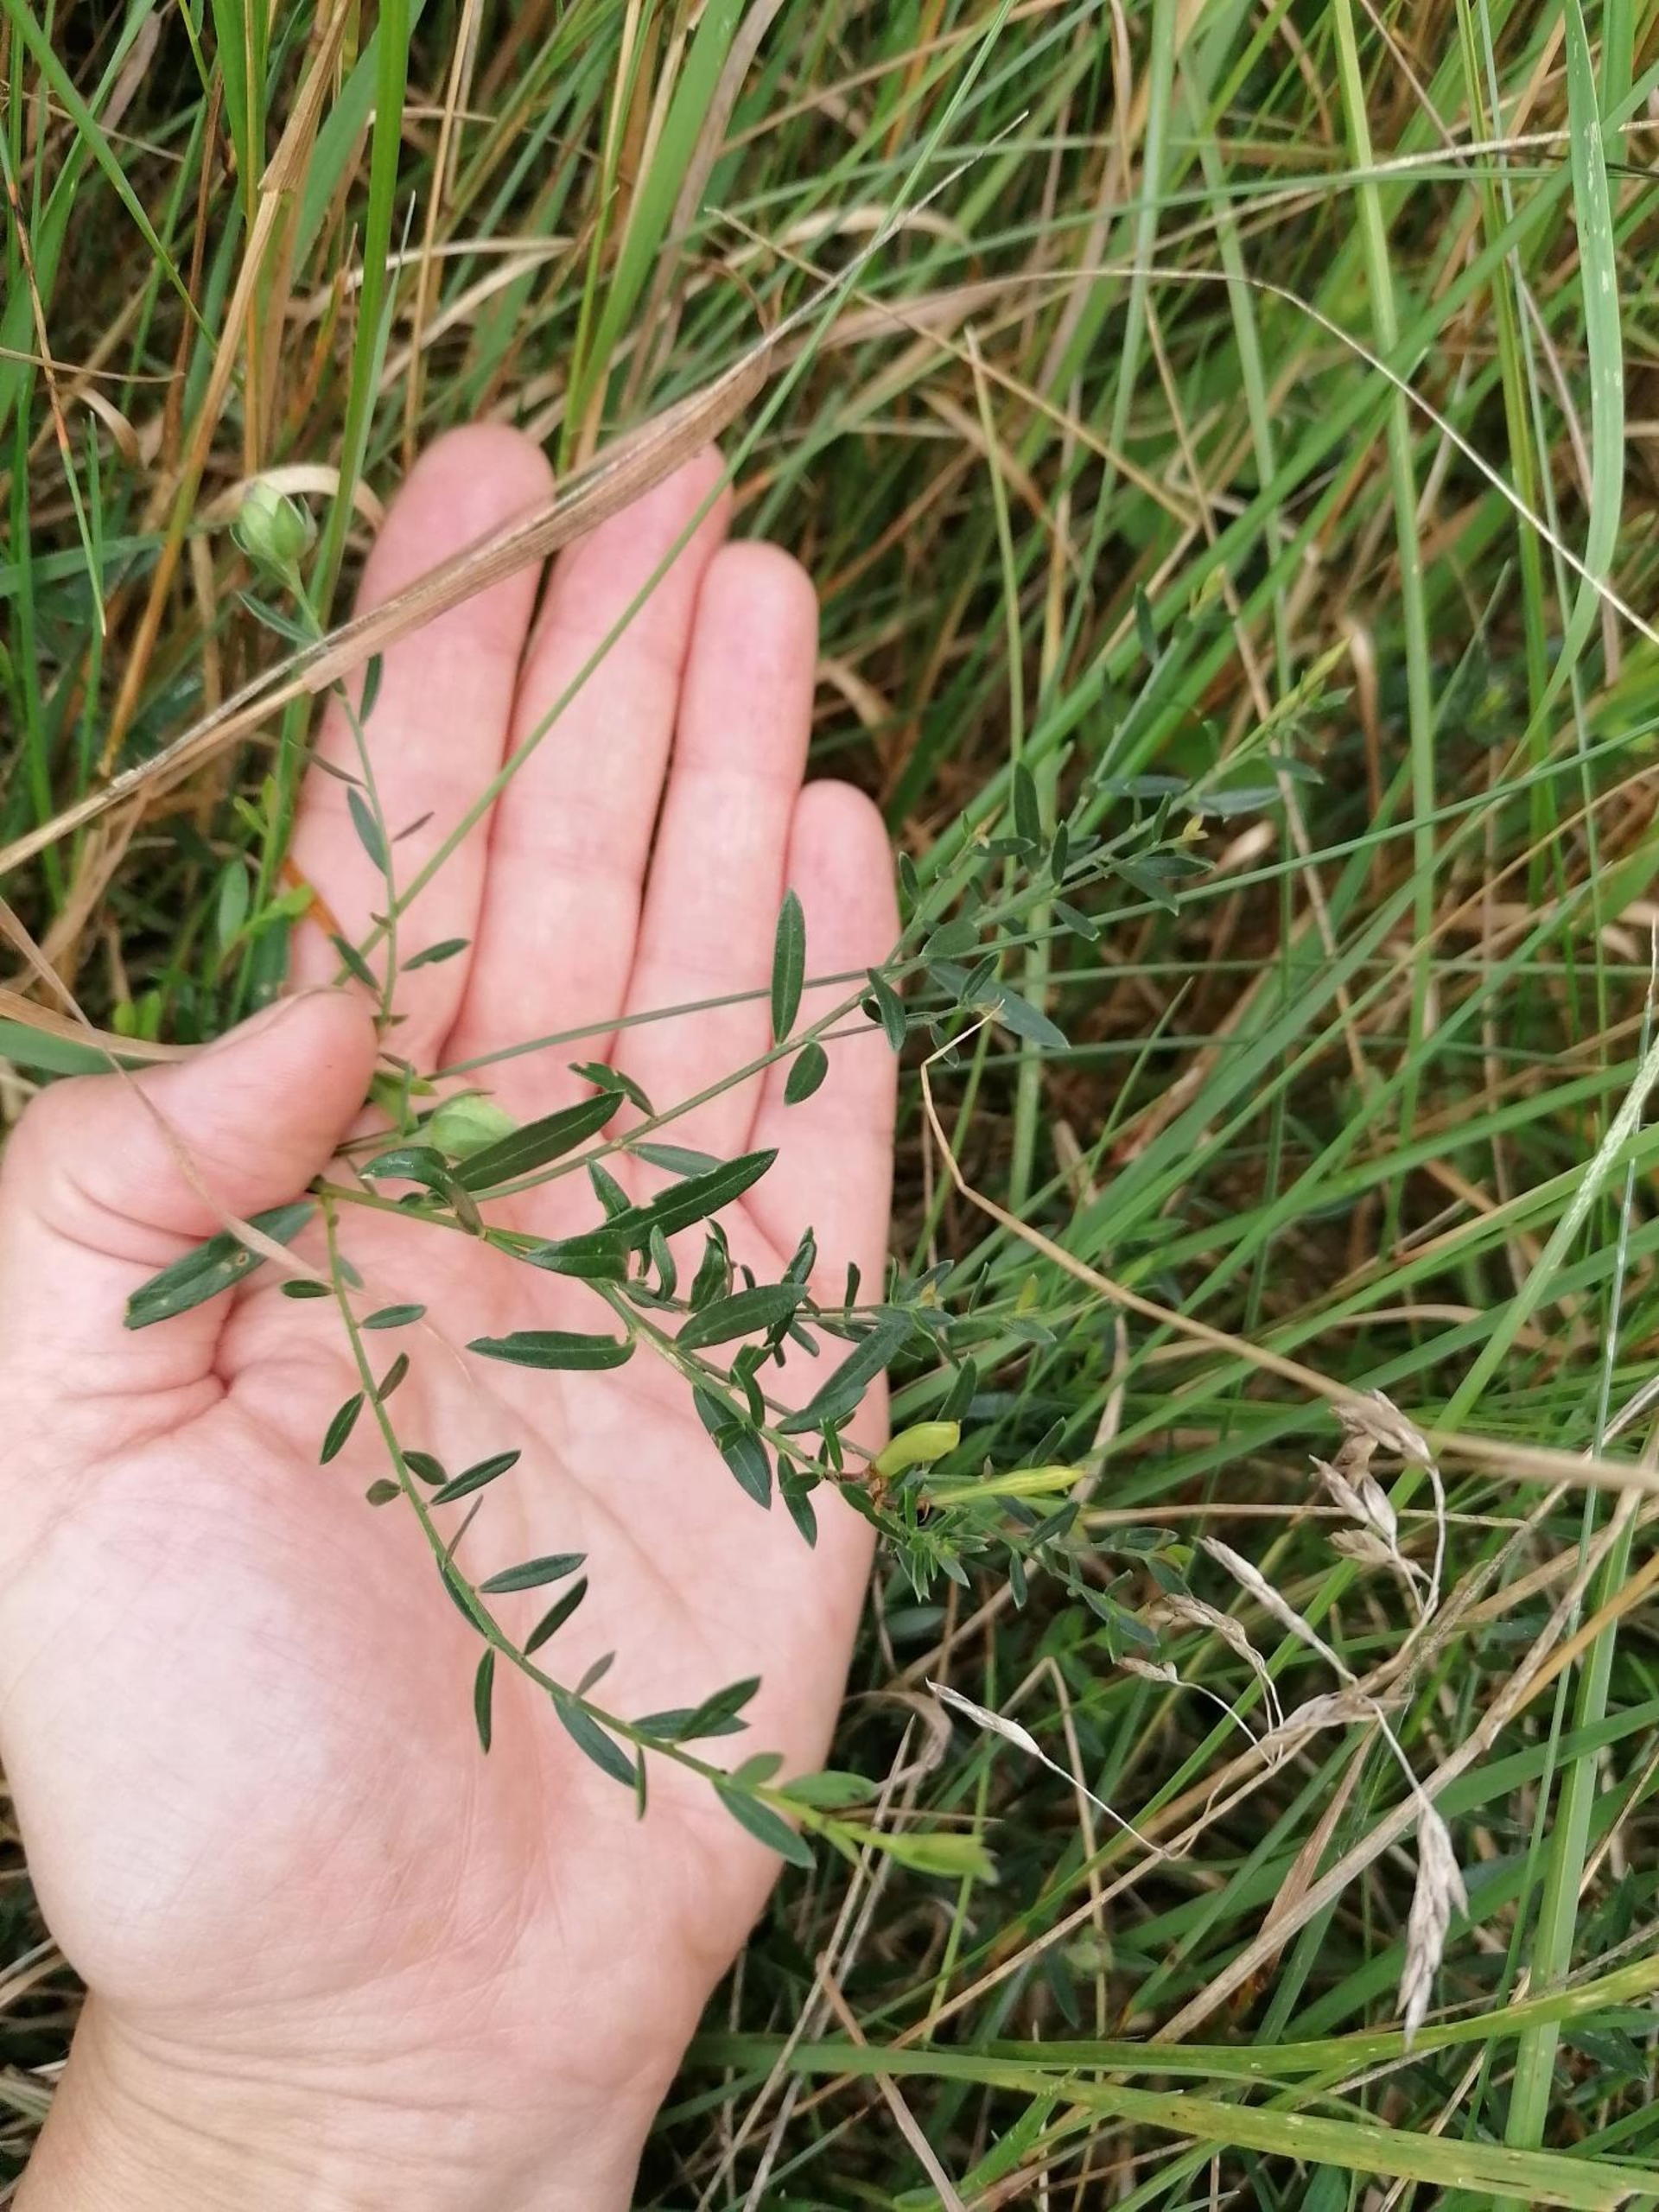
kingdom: Plantae
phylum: Tracheophyta
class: Magnoliopsida
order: Fabales
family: Fabaceae
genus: Genista
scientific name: Genista tinctoria
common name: Farve-visse
